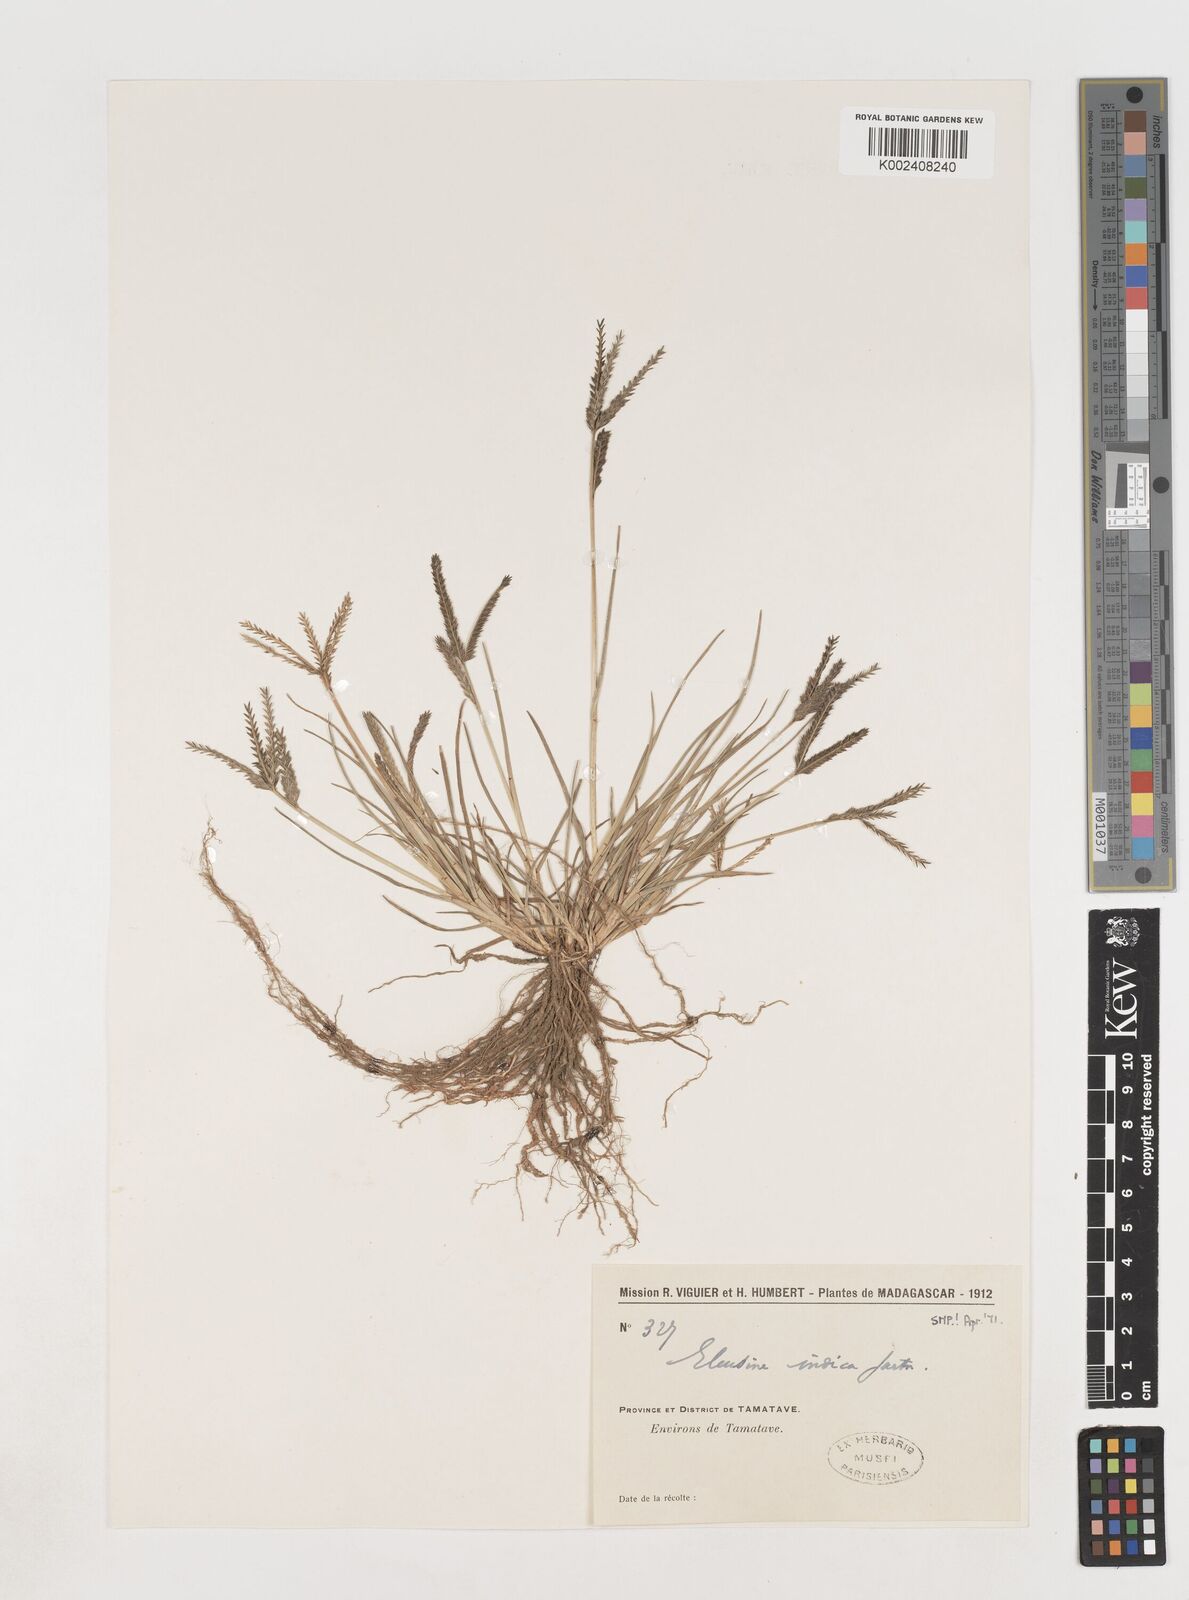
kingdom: Plantae
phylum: Tracheophyta
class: Liliopsida
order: Poales
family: Poaceae
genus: Eleusine
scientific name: Eleusine indica
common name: Yard-grass
